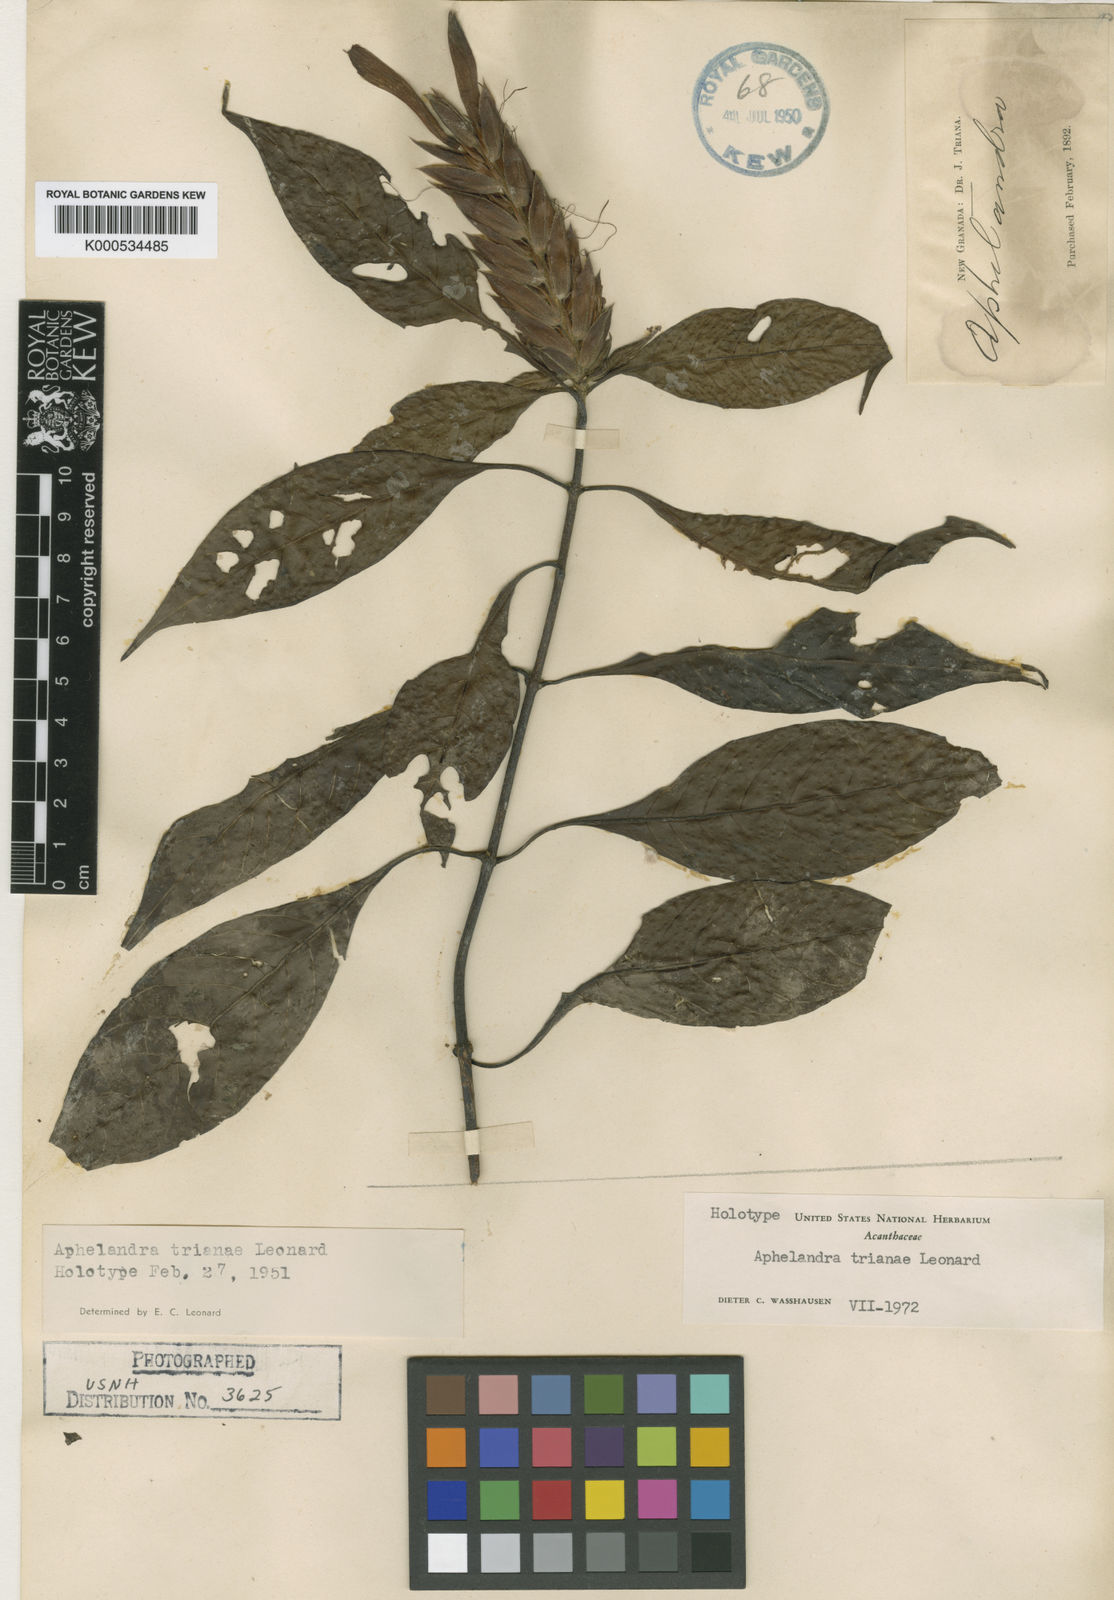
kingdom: Plantae
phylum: Tracheophyta
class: Magnoliopsida
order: Lamiales
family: Acanthaceae
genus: Aphelandra
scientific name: Aphelandra trianae
